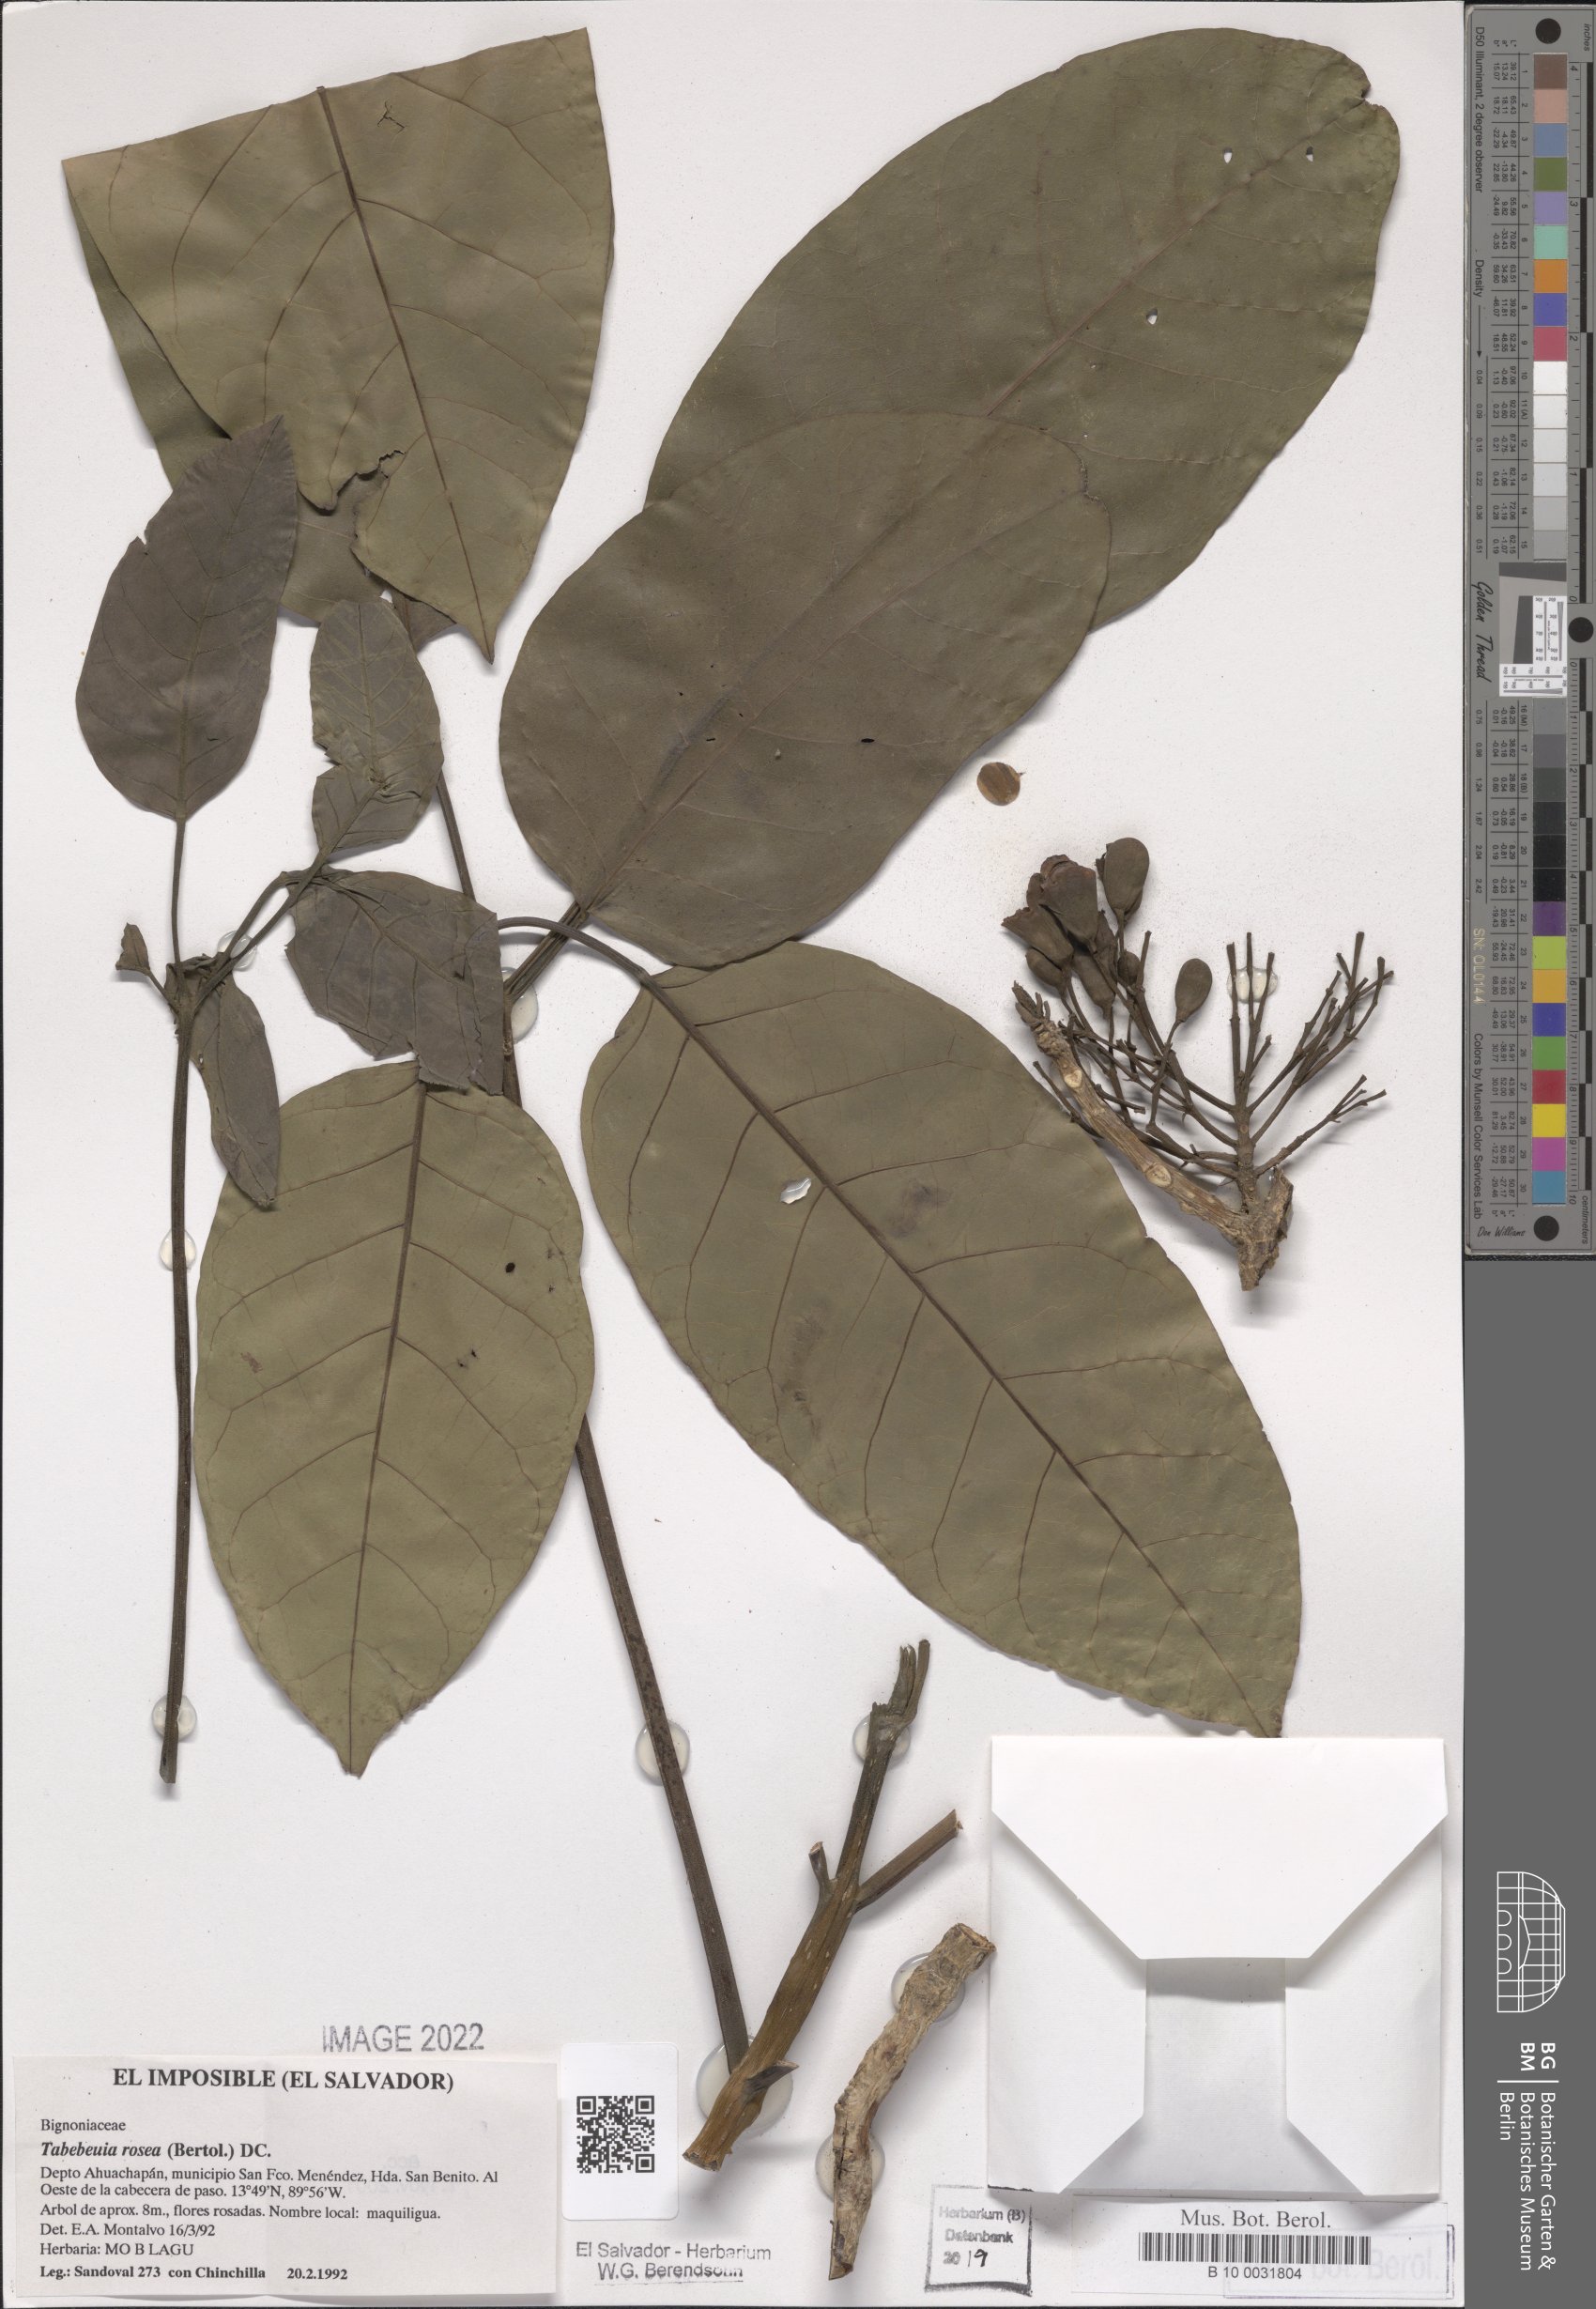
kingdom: Plantae
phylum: Tracheophyta
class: Magnoliopsida
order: Lamiales
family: Bignoniaceae
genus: Tabebuia
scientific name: Tabebuia rosea
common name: Pink poui
